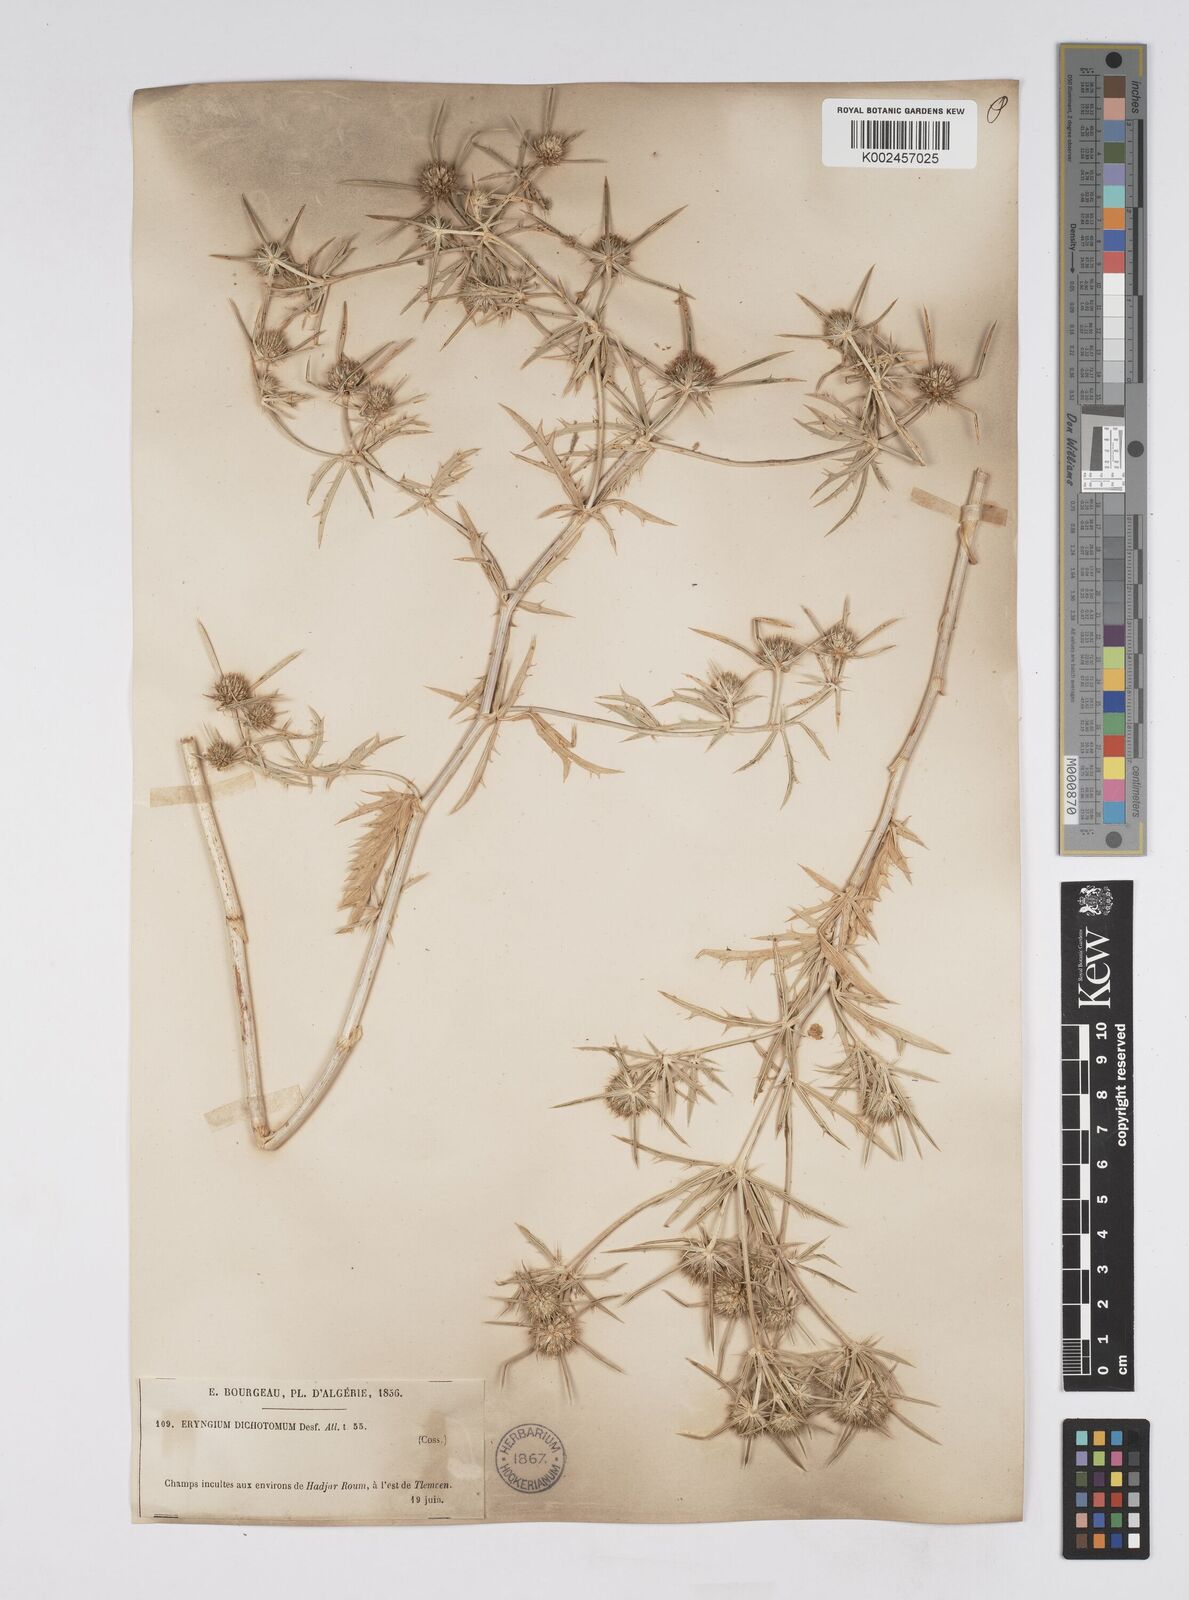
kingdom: Plantae
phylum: Tracheophyta
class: Magnoliopsida
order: Apiales
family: Apiaceae
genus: Eryngium
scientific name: Eryngium dichotomum
